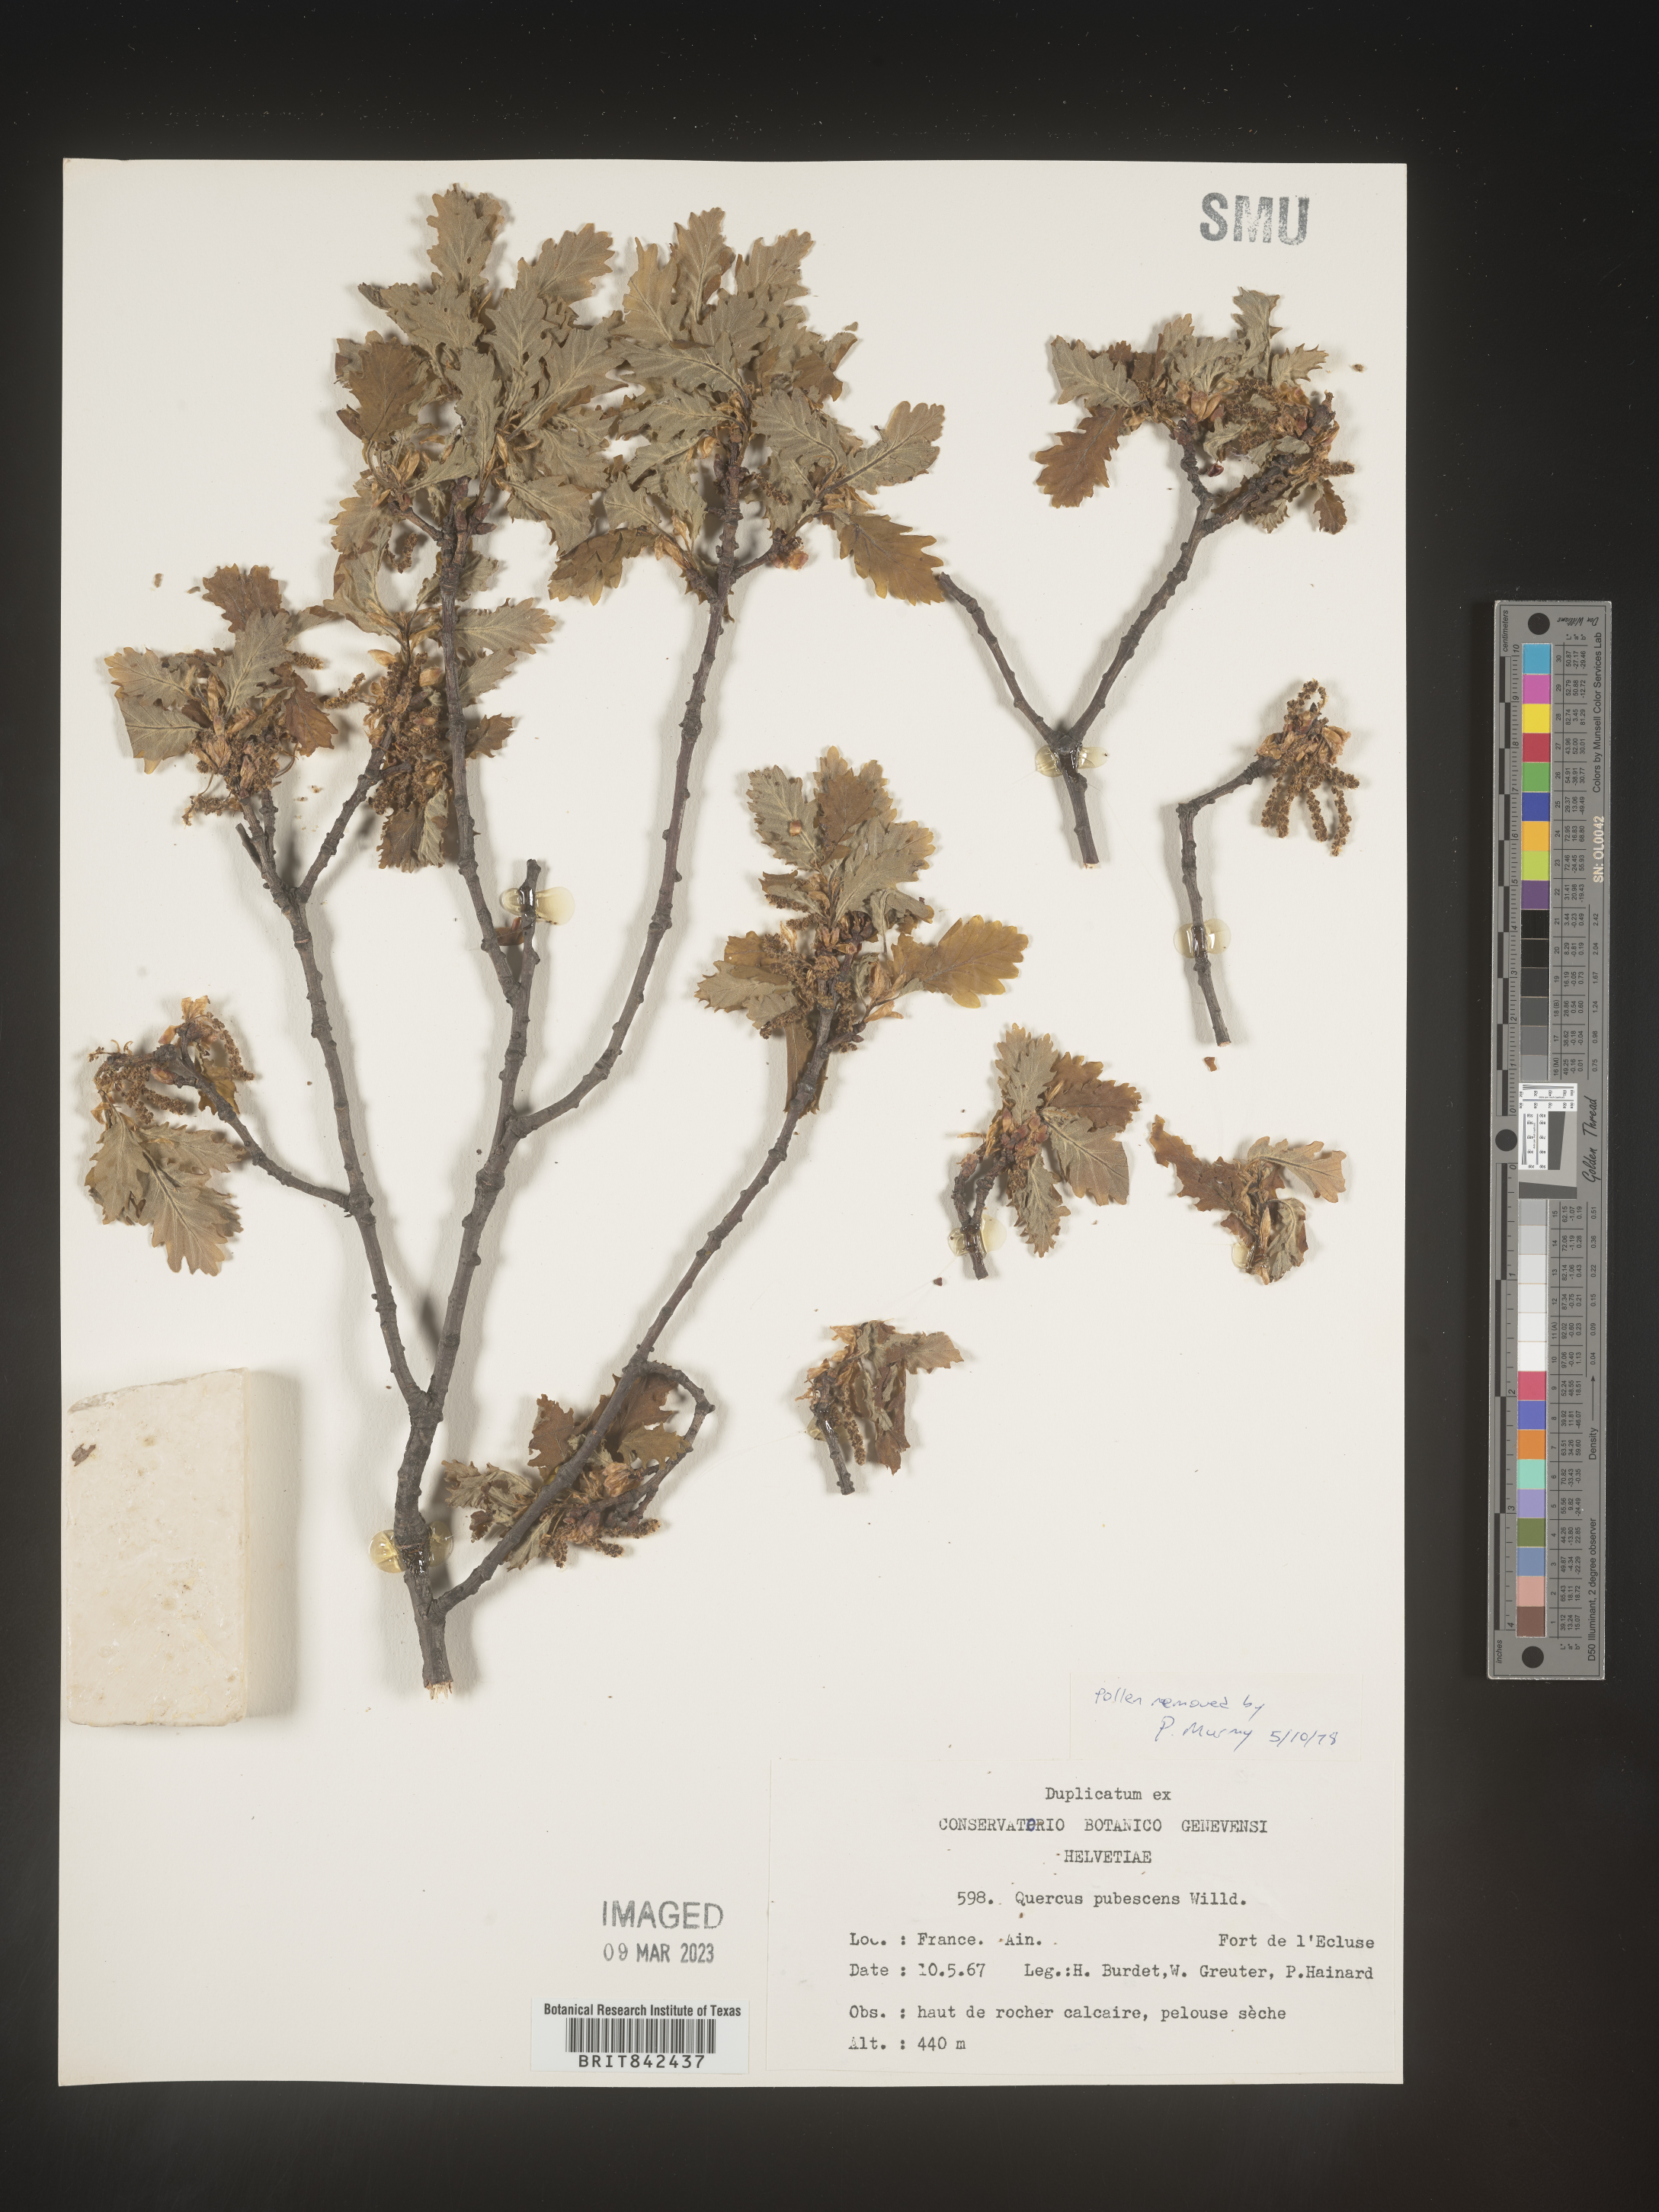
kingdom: Plantae
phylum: Tracheophyta
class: Magnoliopsida
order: Fagales
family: Fagaceae
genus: Quercus
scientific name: Quercus
